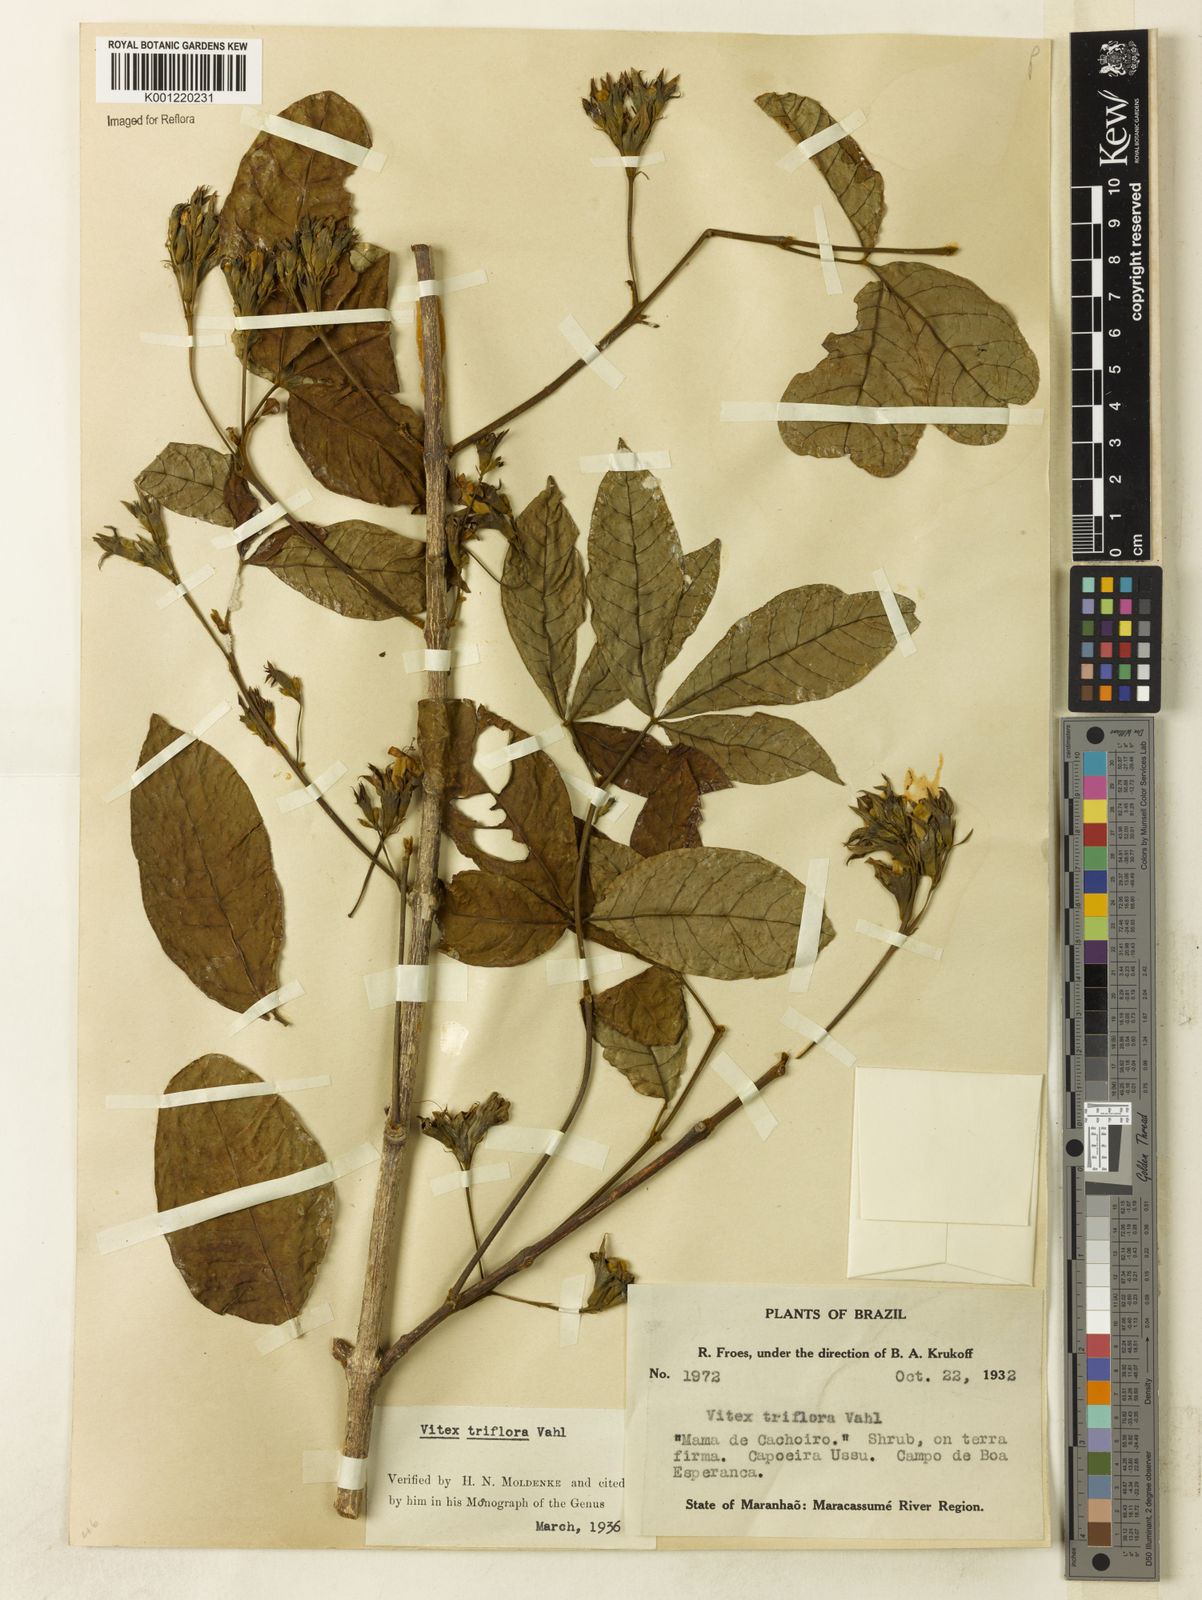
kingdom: Plantae
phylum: Tracheophyta
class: Magnoliopsida
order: Lamiales
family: Lamiaceae
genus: Vitex
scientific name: Vitex triflora
